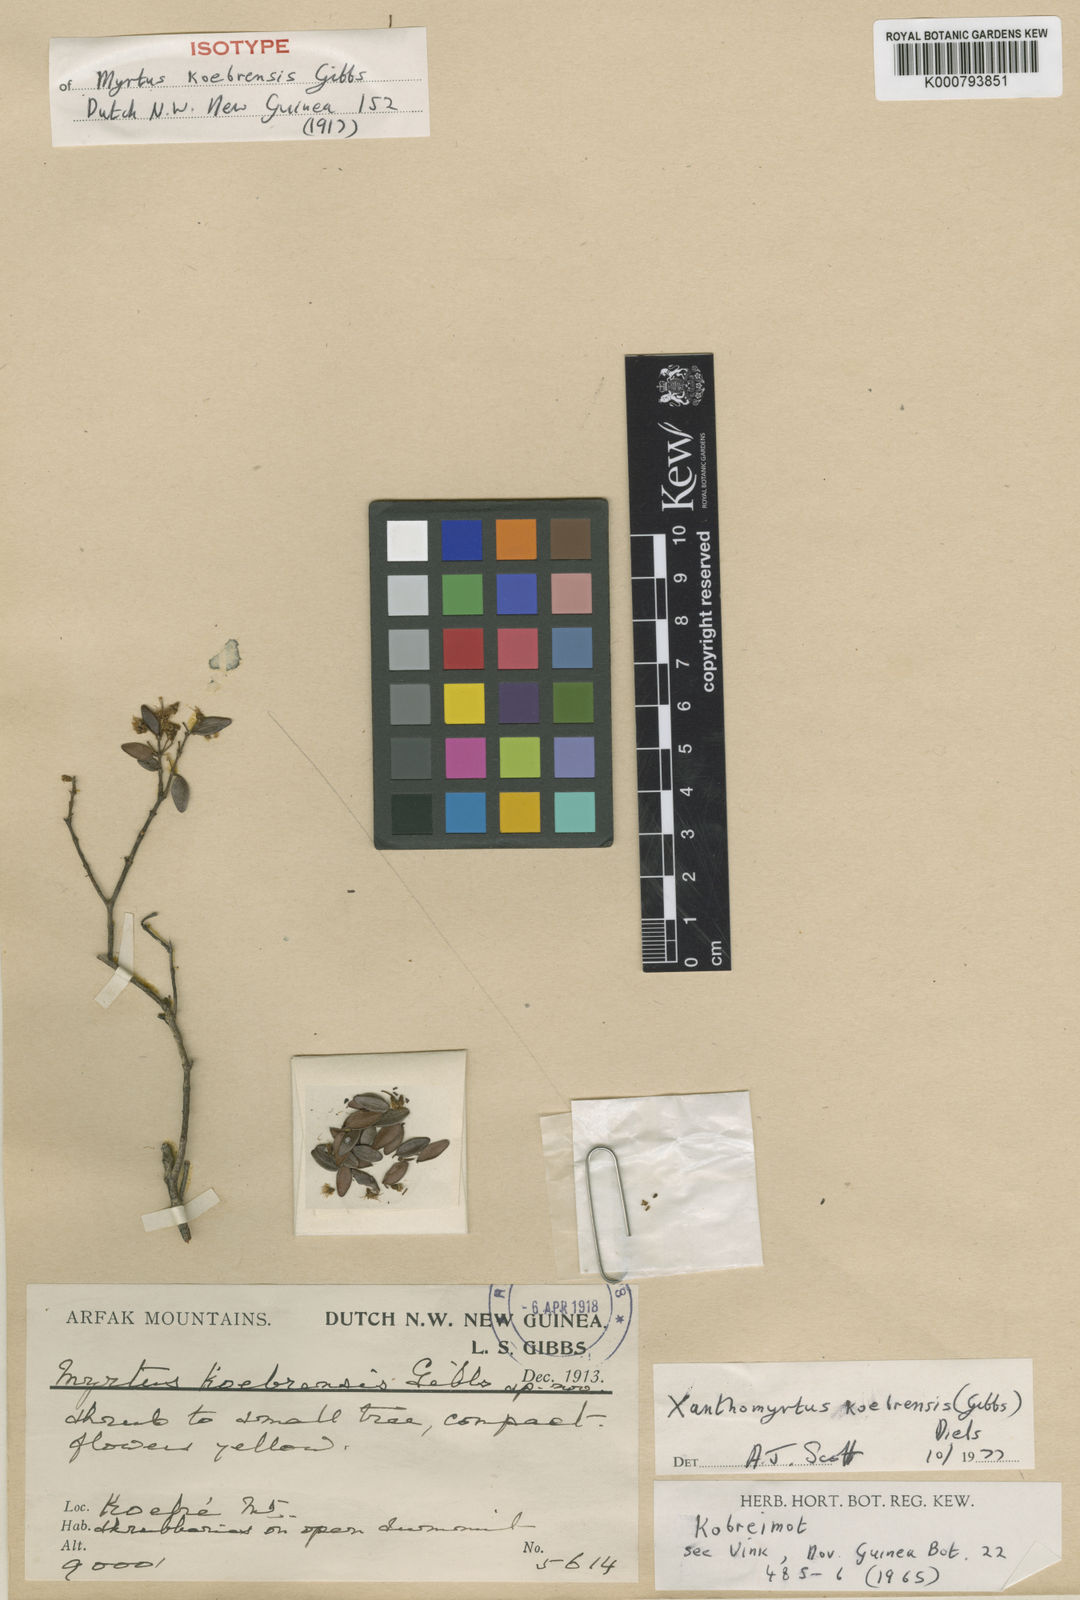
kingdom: Plantae
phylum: Tracheophyta
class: Magnoliopsida
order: Myrtales
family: Myrtaceae
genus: Xanthomyrtus
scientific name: Xanthomyrtus koebrensis
